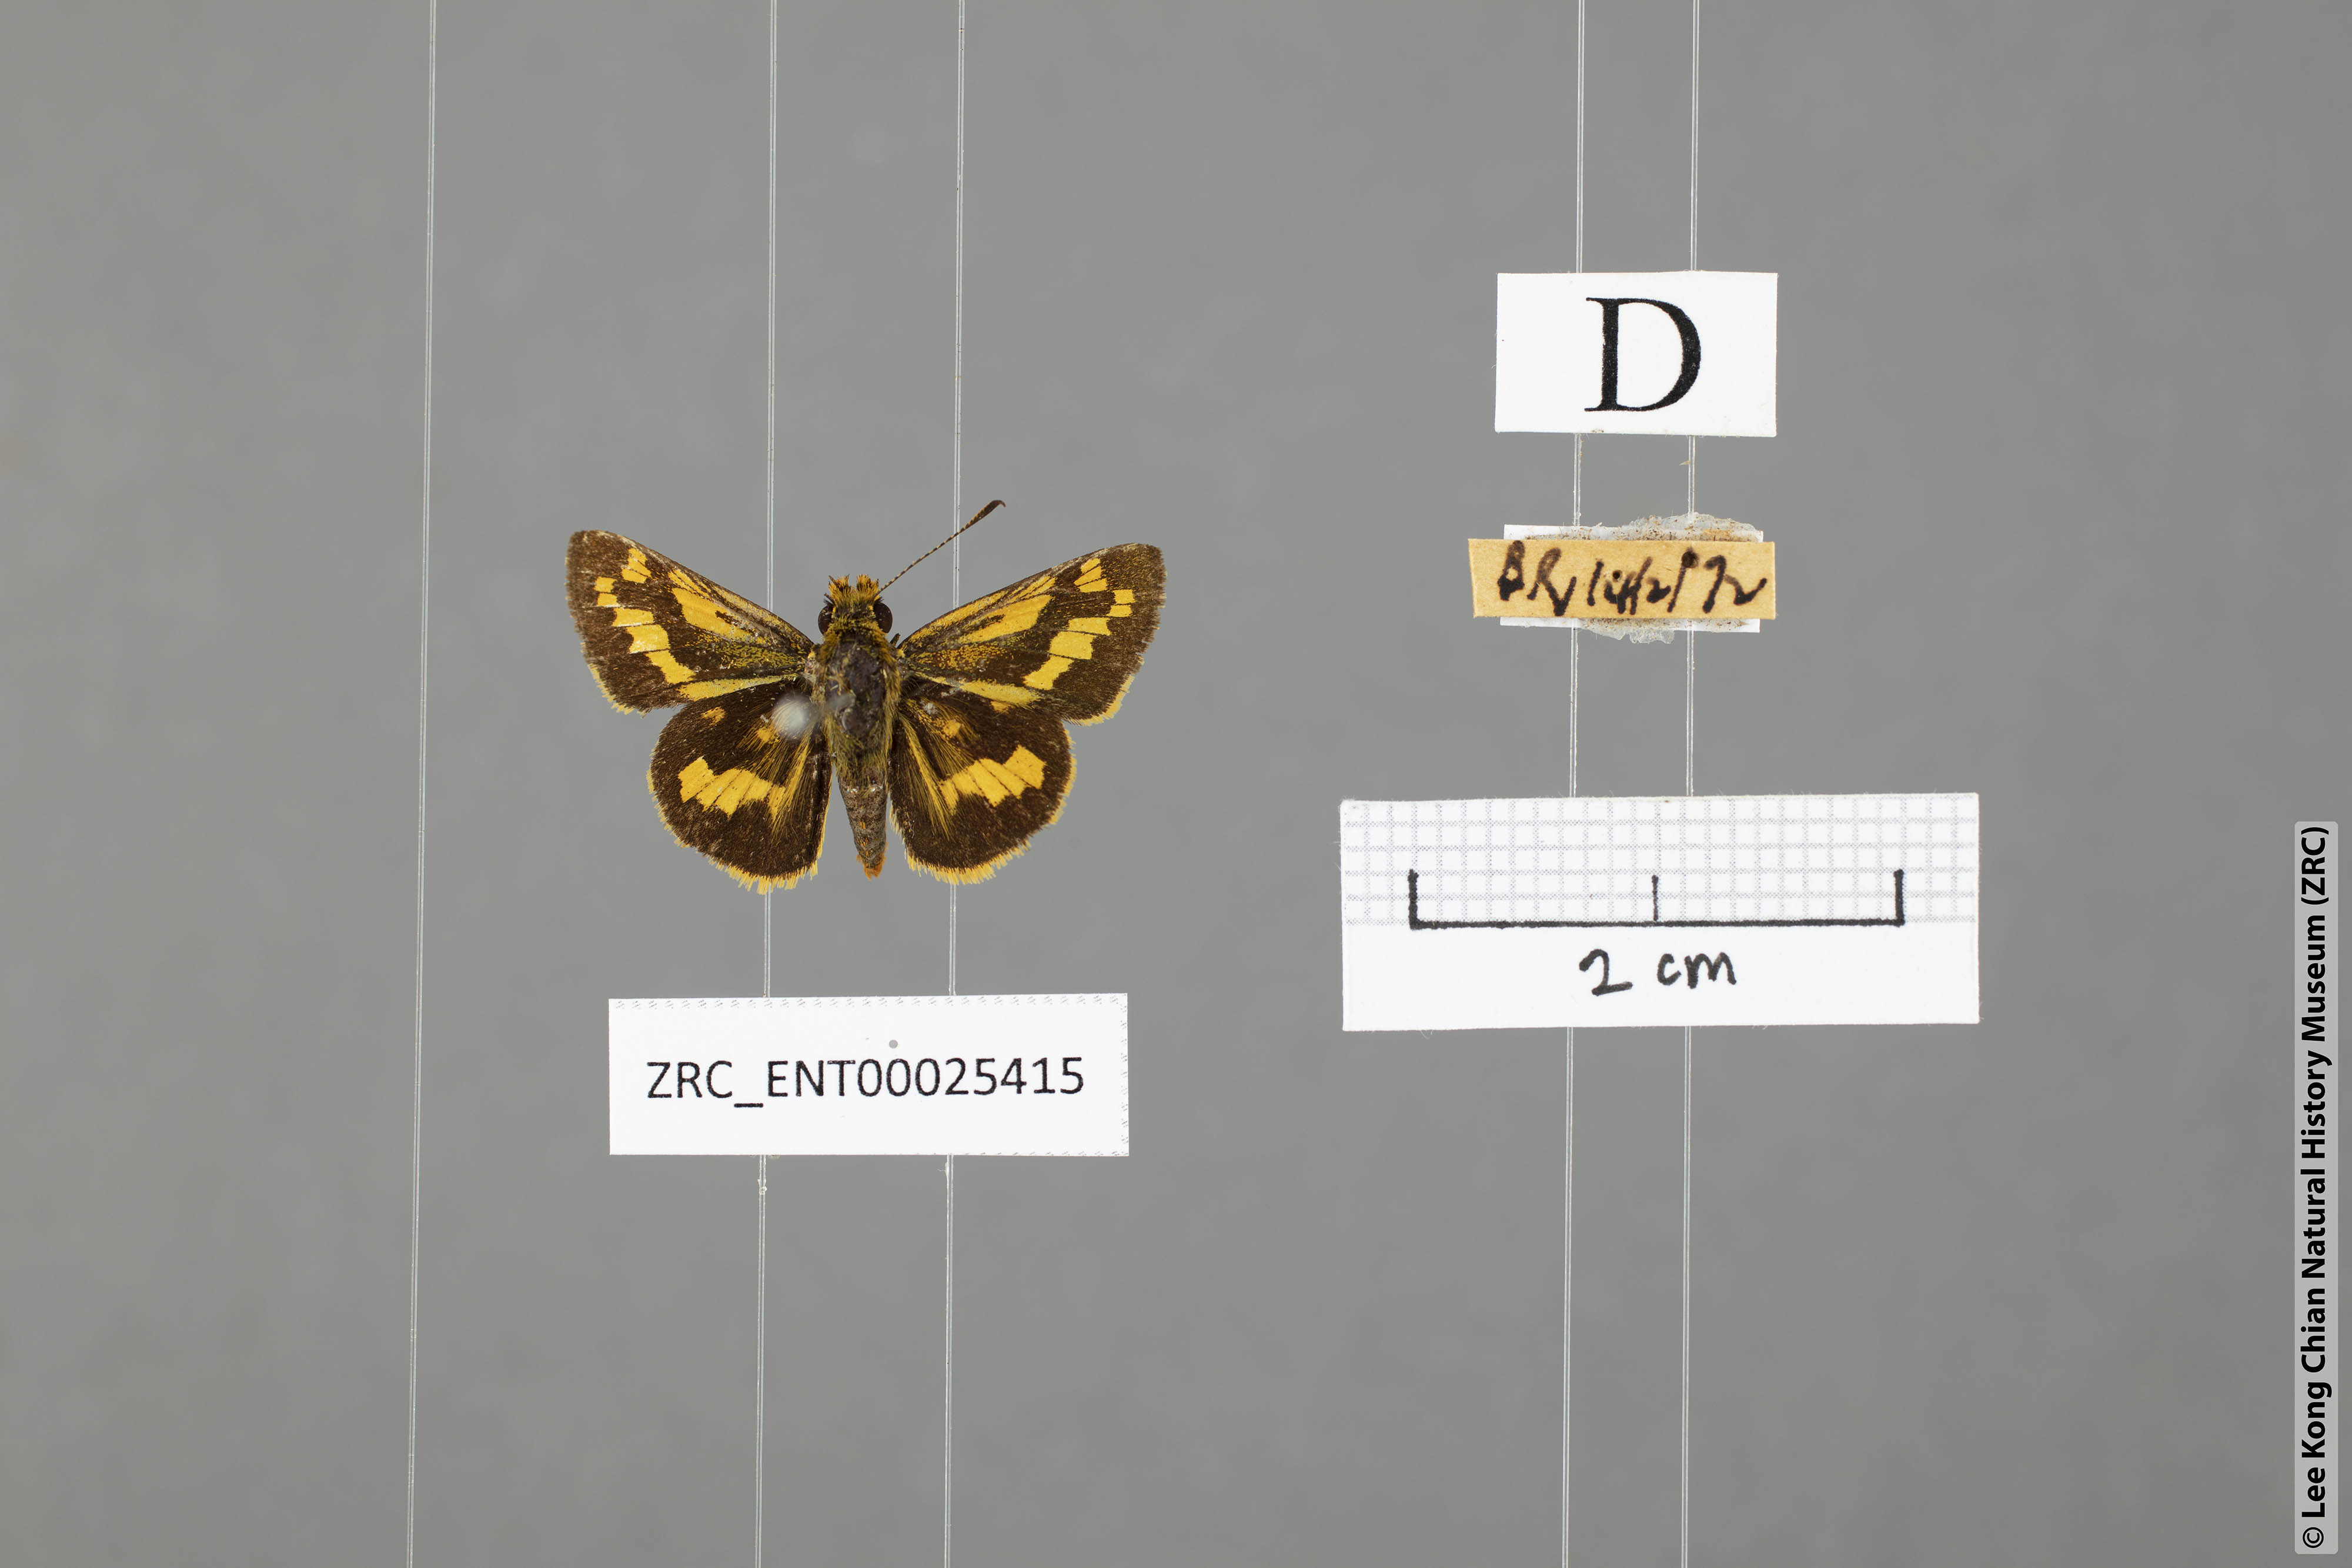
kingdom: Animalia
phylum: Arthropoda
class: Insecta
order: Lepidoptera
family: Hesperiidae
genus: Potanthus
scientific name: Potanthus omaha
